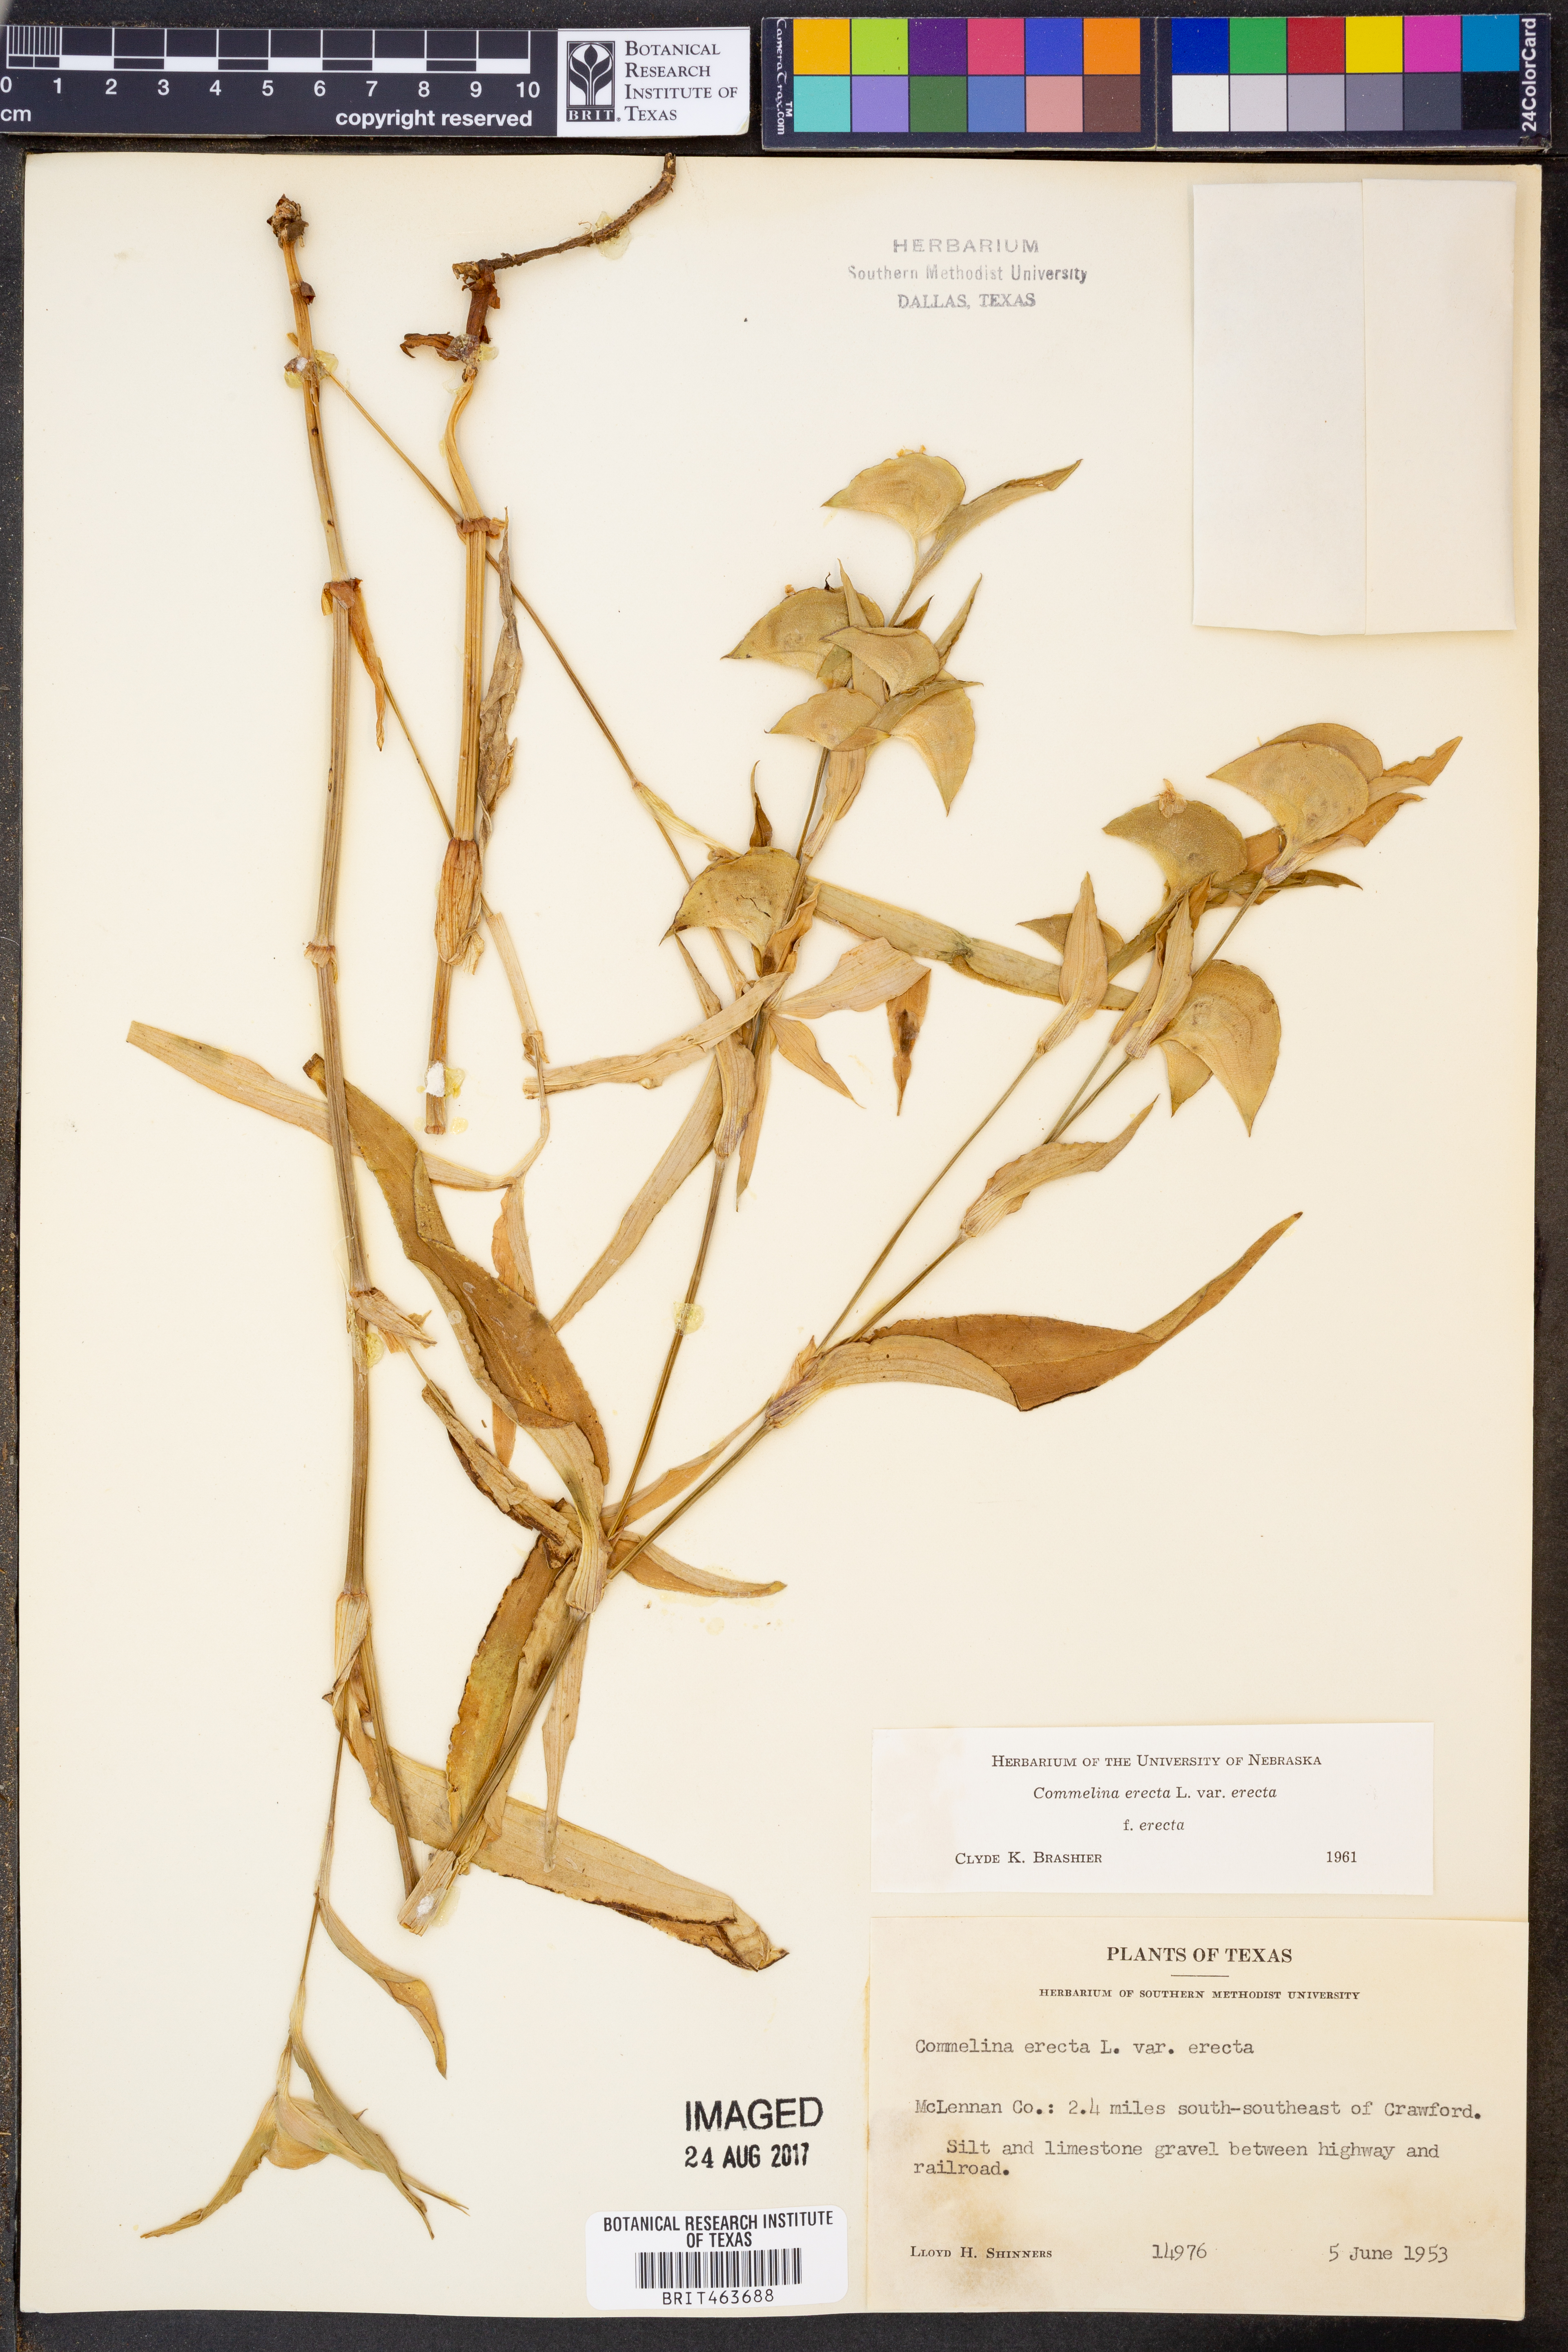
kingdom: Plantae
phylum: Tracheophyta
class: Liliopsida
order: Commelinales
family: Commelinaceae
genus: Commelina
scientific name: Commelina erecta
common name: Blousel blommetjie
